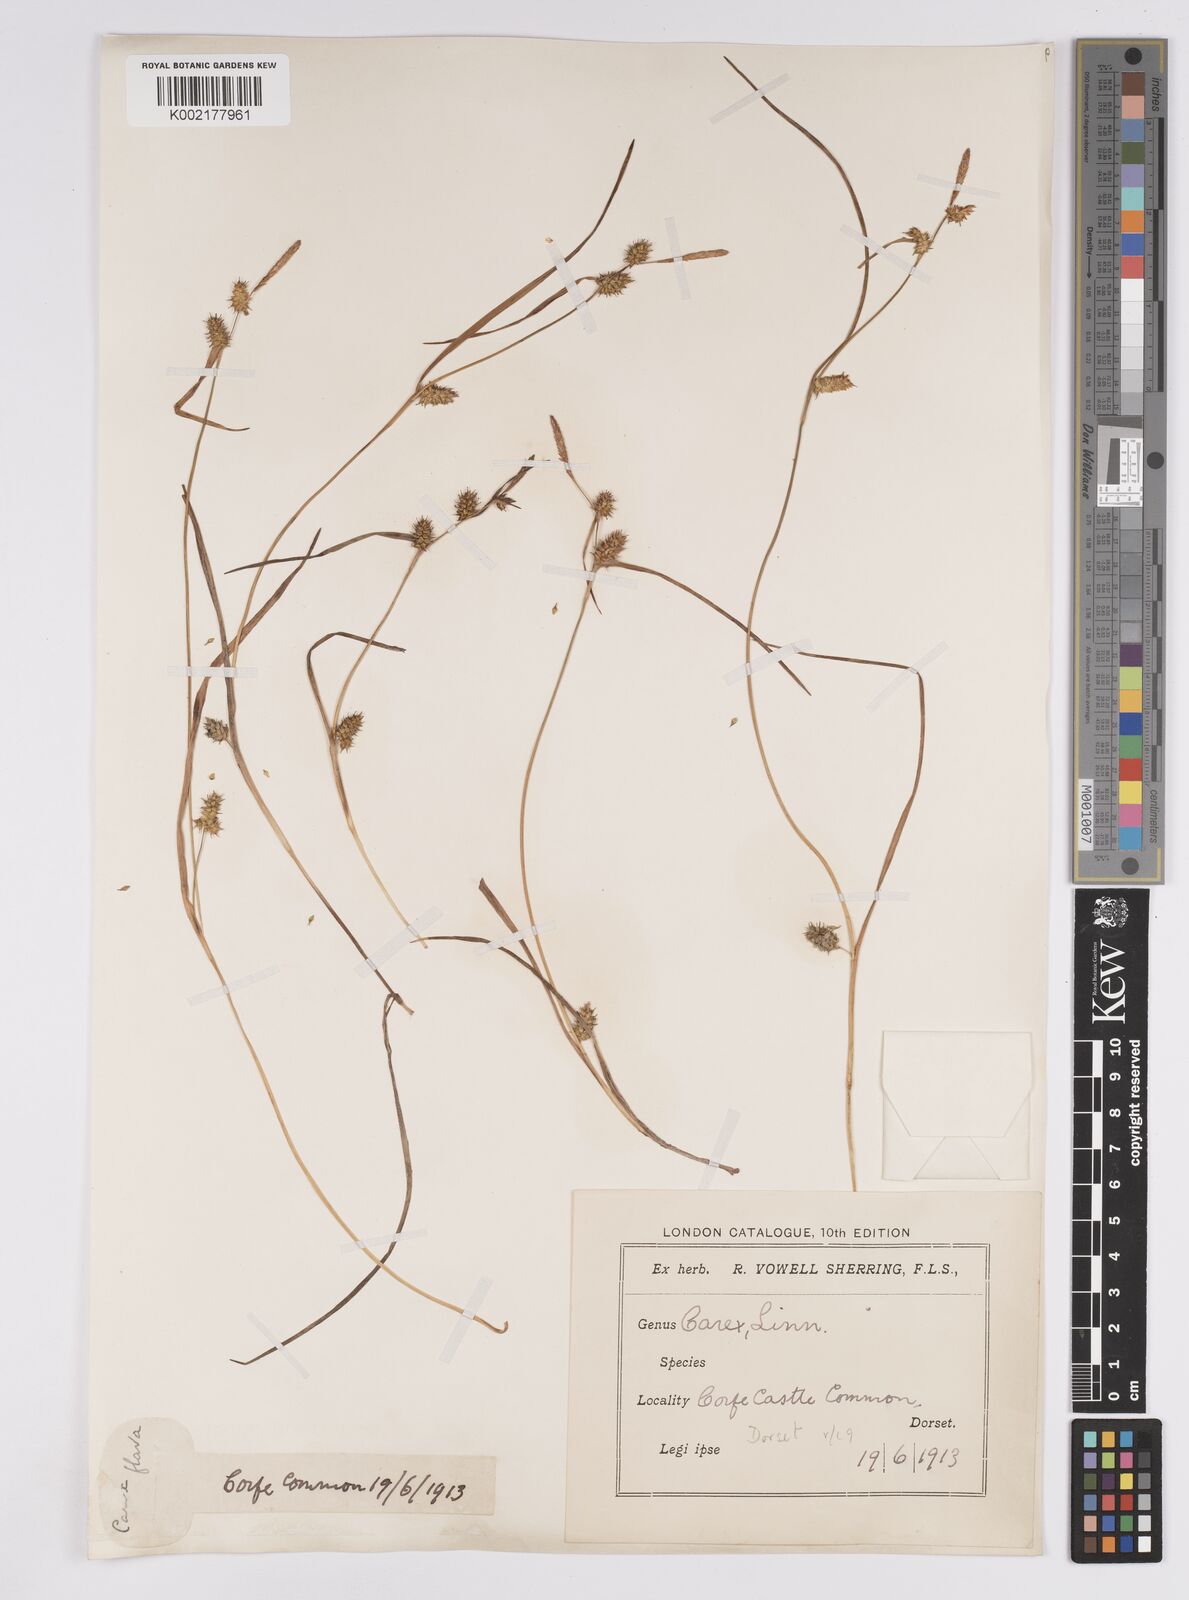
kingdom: Plantae
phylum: Tracheophyta
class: Liliopsida
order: Poales
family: Cyperaceae
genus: Carex
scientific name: Carex demissa
